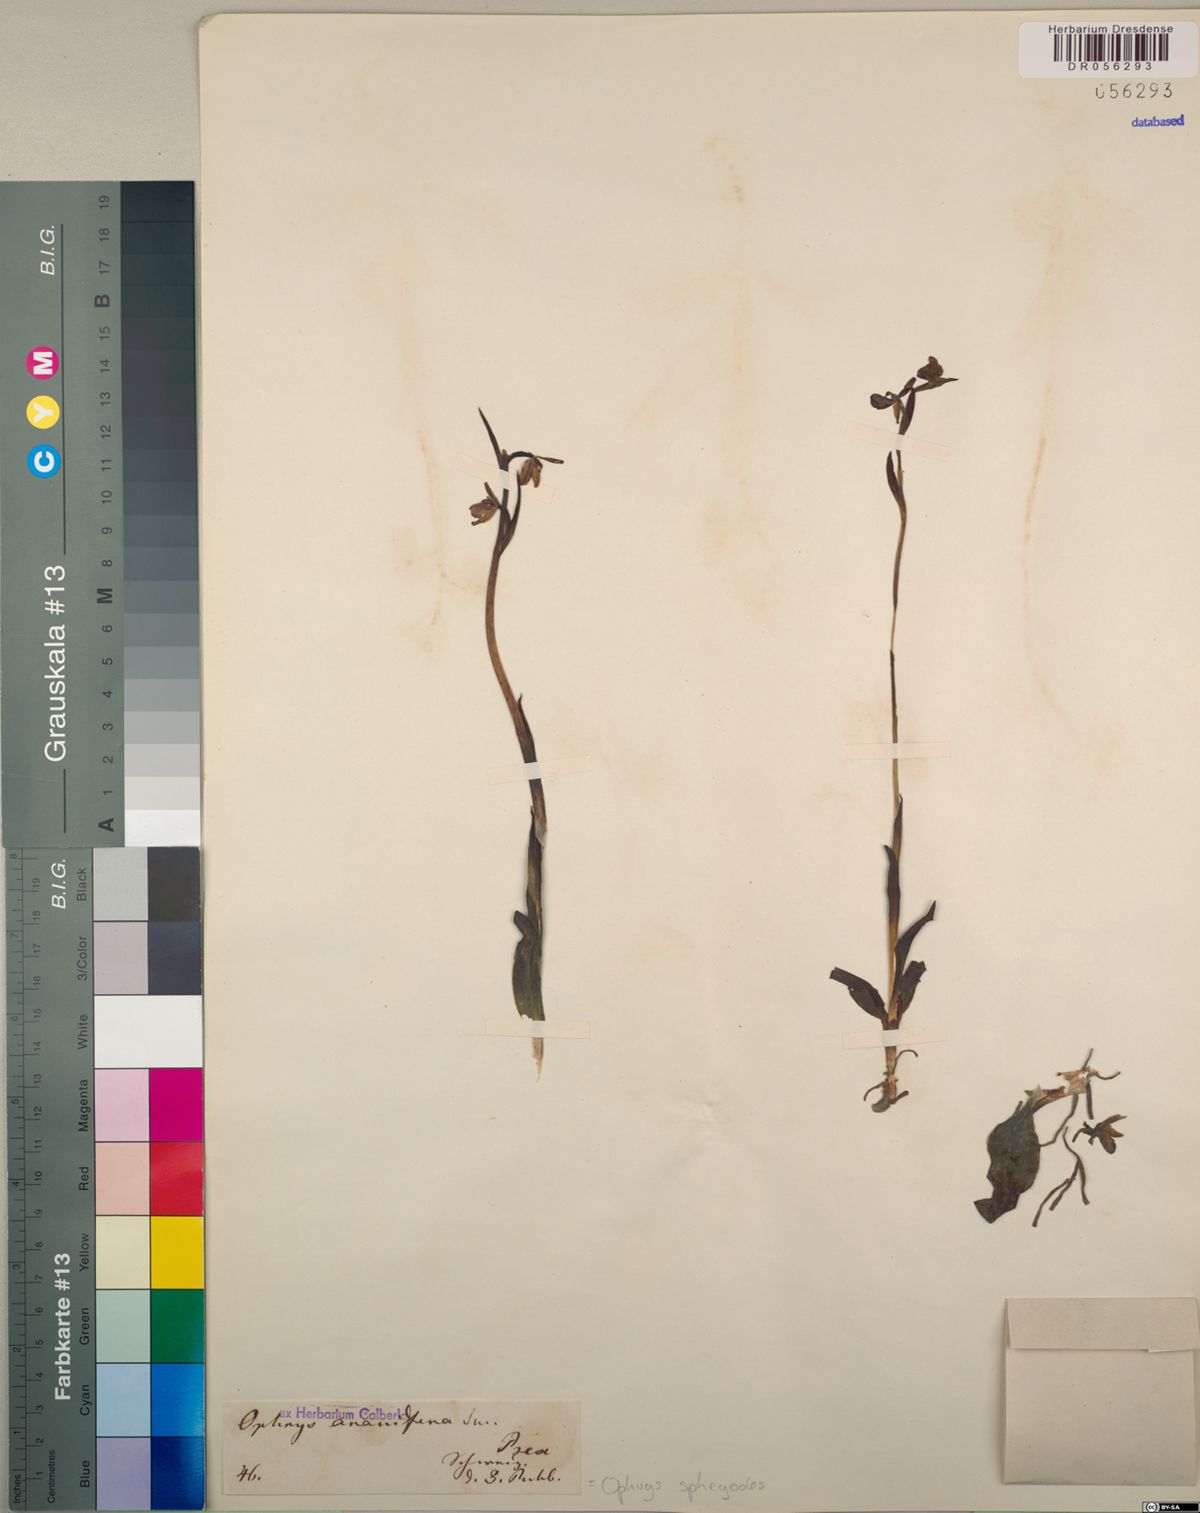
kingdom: Plantae
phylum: Tracheophyta
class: Liliopsida
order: Asparagales
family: Orchidaceae
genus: Ophrys
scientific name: Ophrys sphegodes
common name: Early spider-orchid
